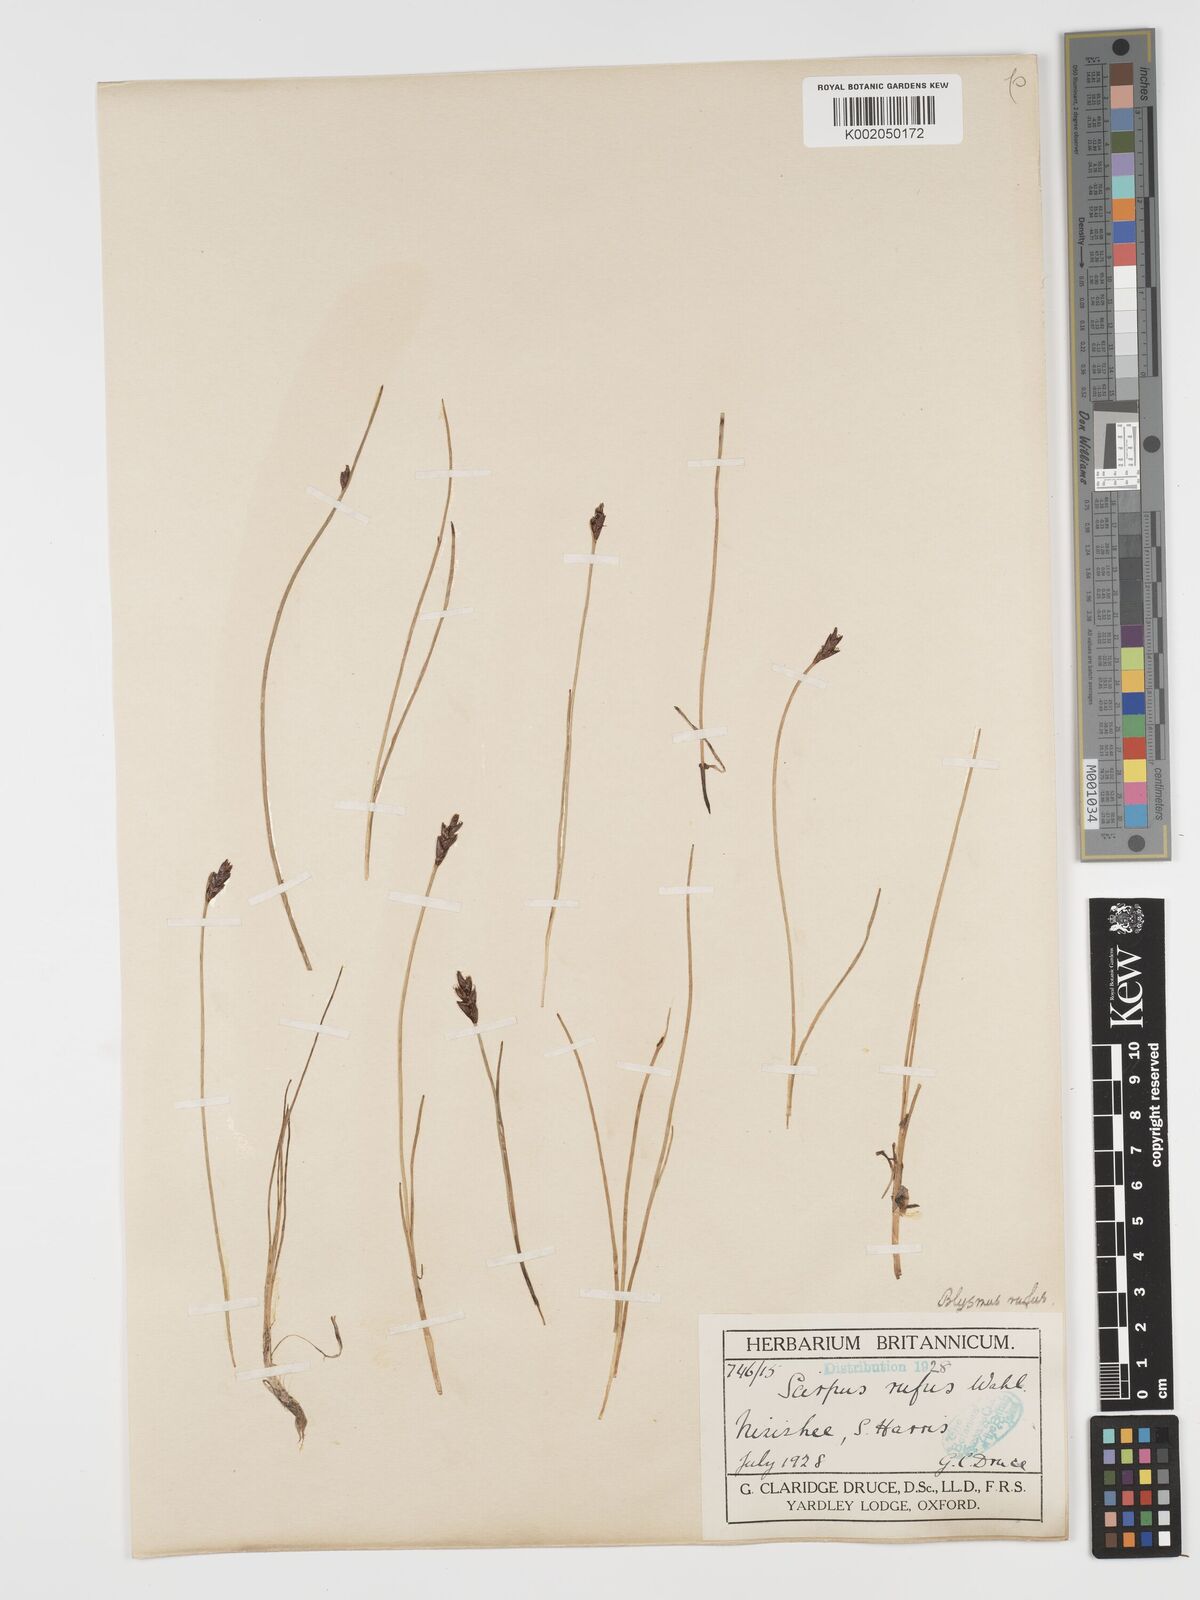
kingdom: Plantae
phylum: Tracheophyta
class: Liliopsida
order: Poales
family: Cyperaceae
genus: Blysmus
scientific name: Blysmus rufus
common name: Saltmarsh flat-sedge
